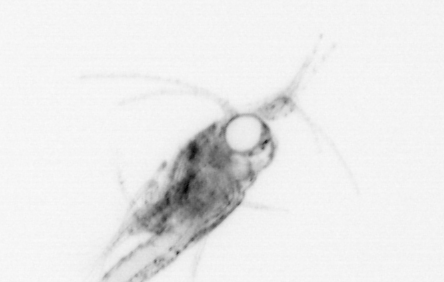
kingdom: Animalia
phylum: Arthropoda
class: Malacostraca
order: Decapoda
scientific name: Decapoda
